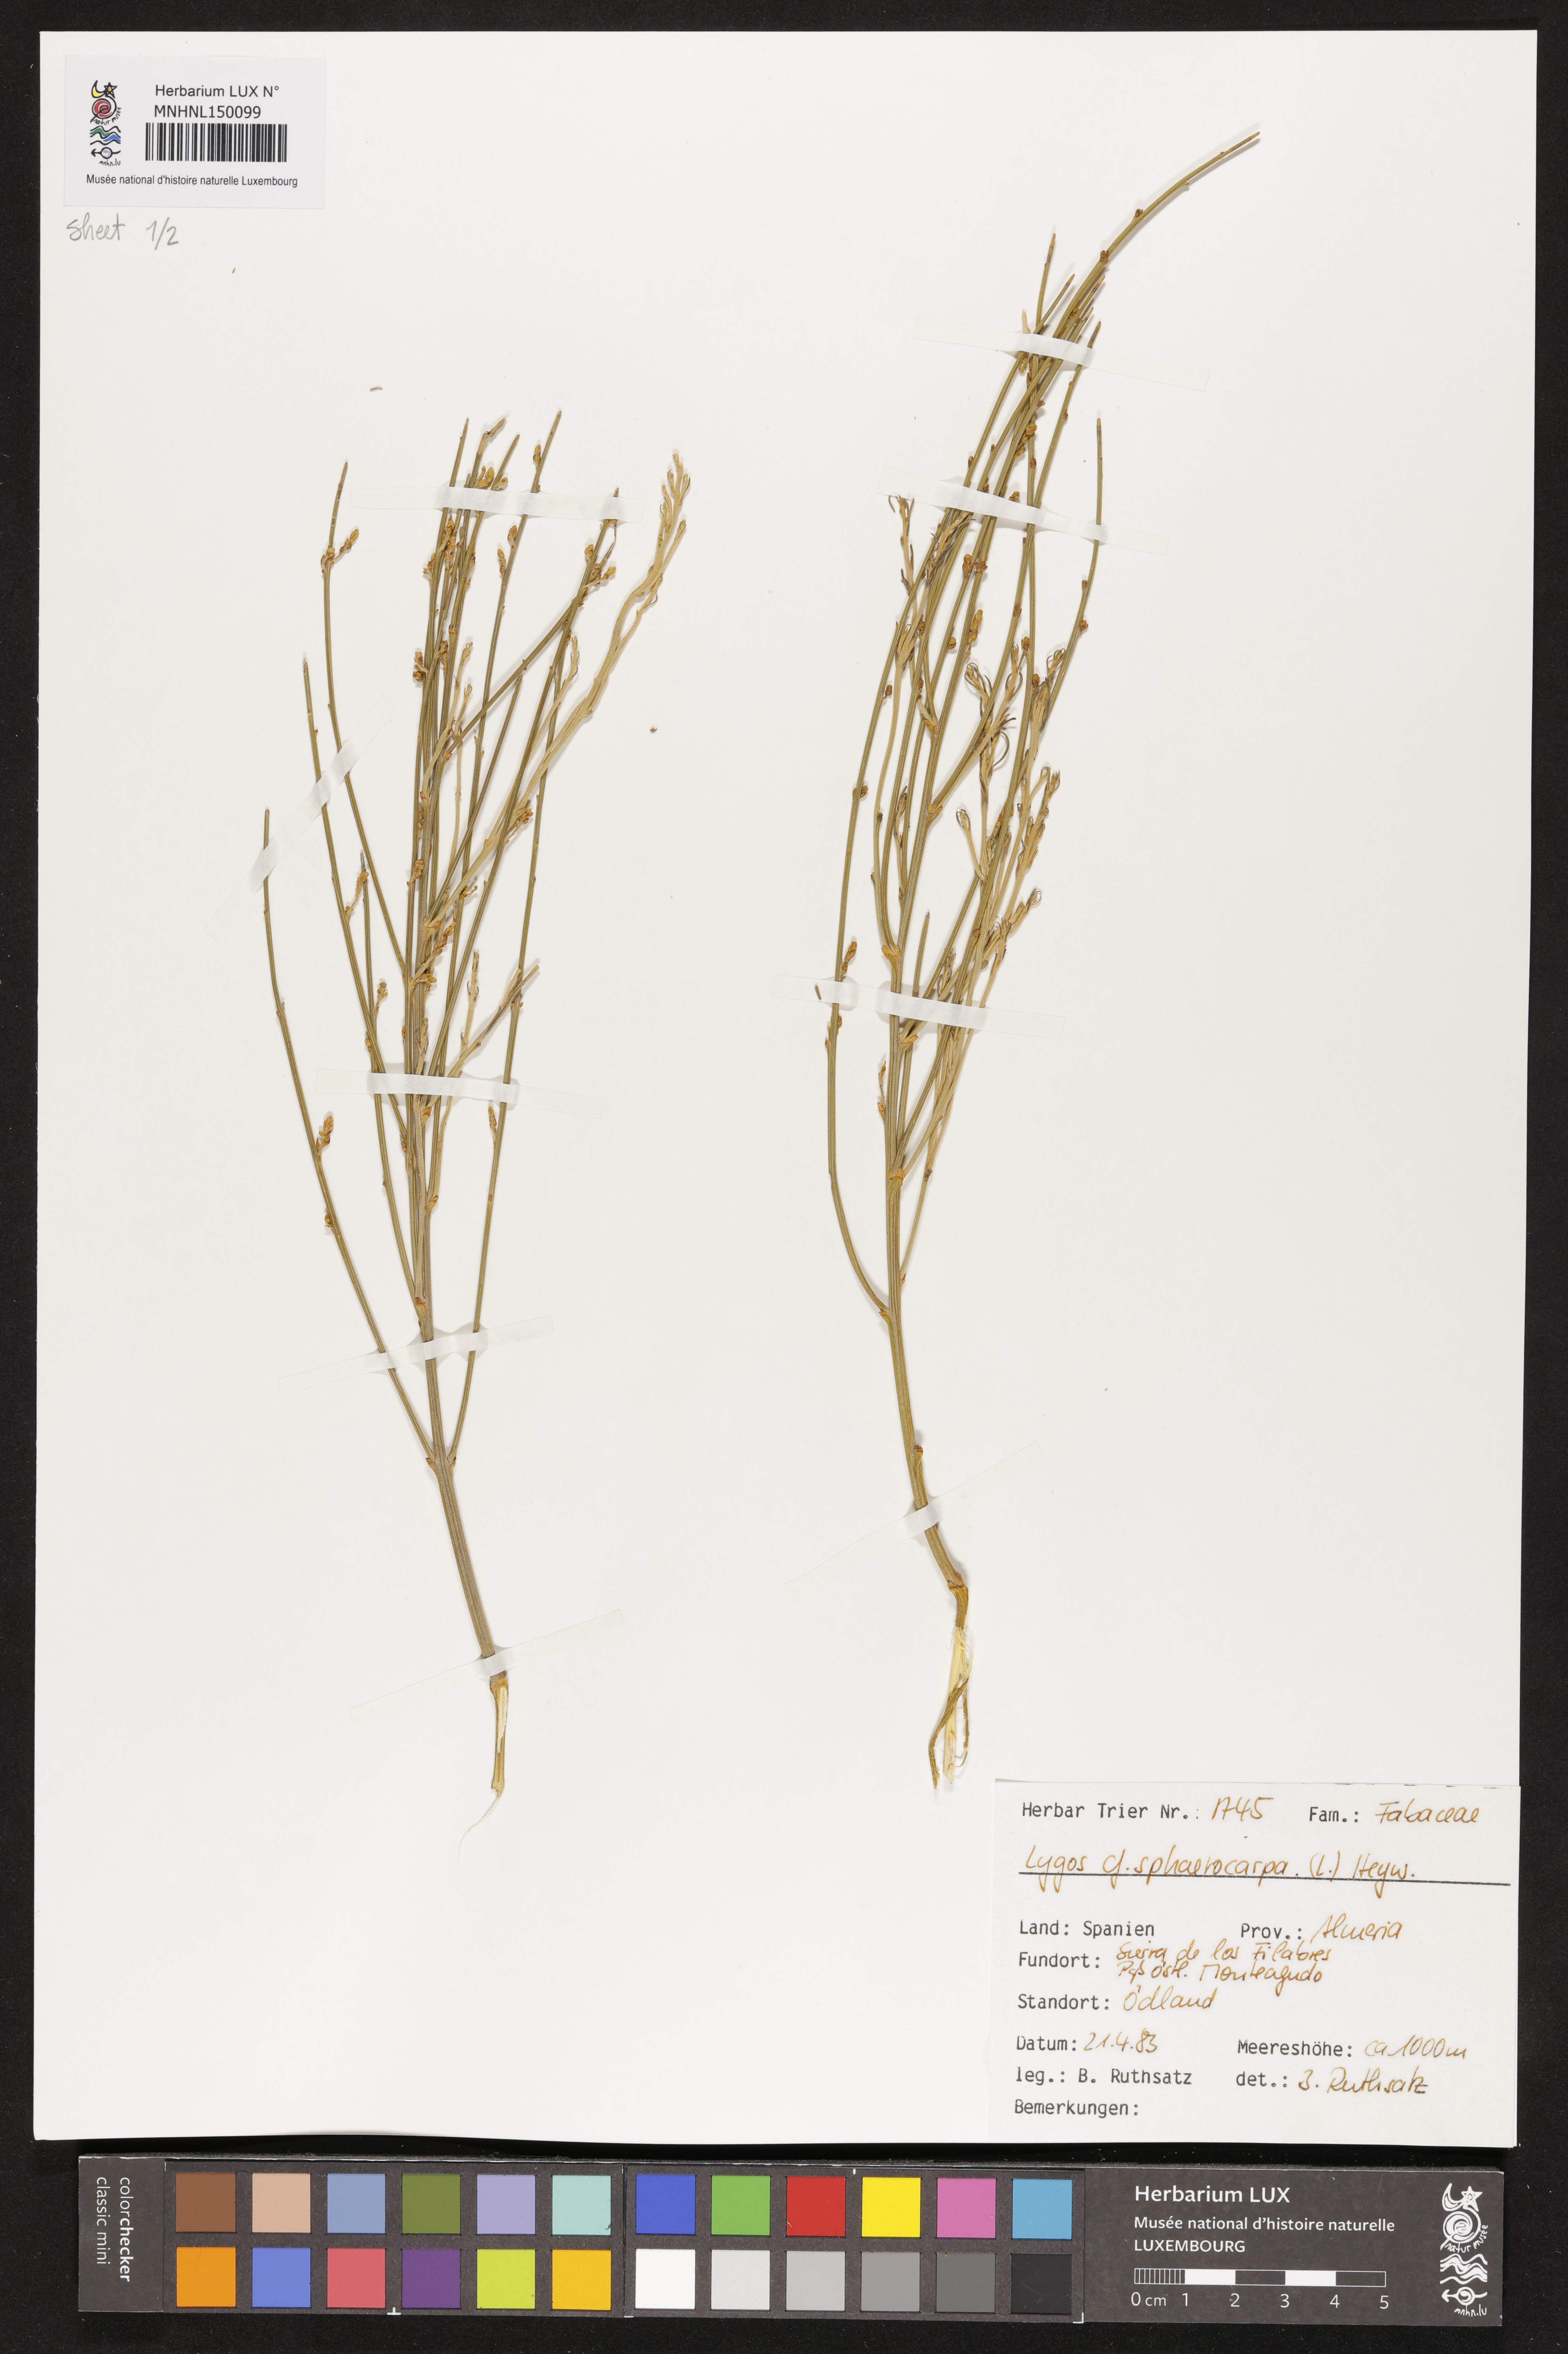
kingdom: Plantae
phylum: Tracheophyta
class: Magnoliopsida
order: Fabales
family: Fabaceae
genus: Retama
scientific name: Retama sphaerocarpa
